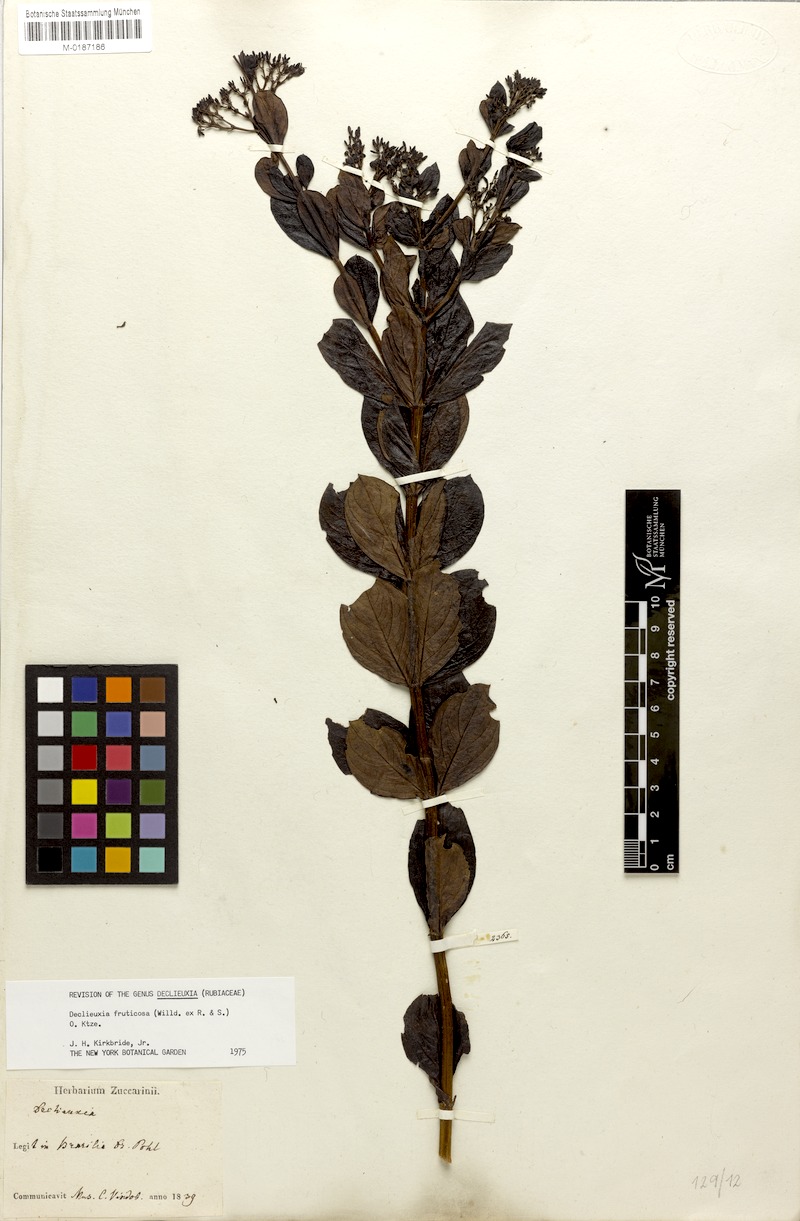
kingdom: Plantae
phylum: Tracheophyta
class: Magnoliopsida
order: Gentianales
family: Rubiaceae
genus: Declieuxia
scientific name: Declieuxia fruticosa
